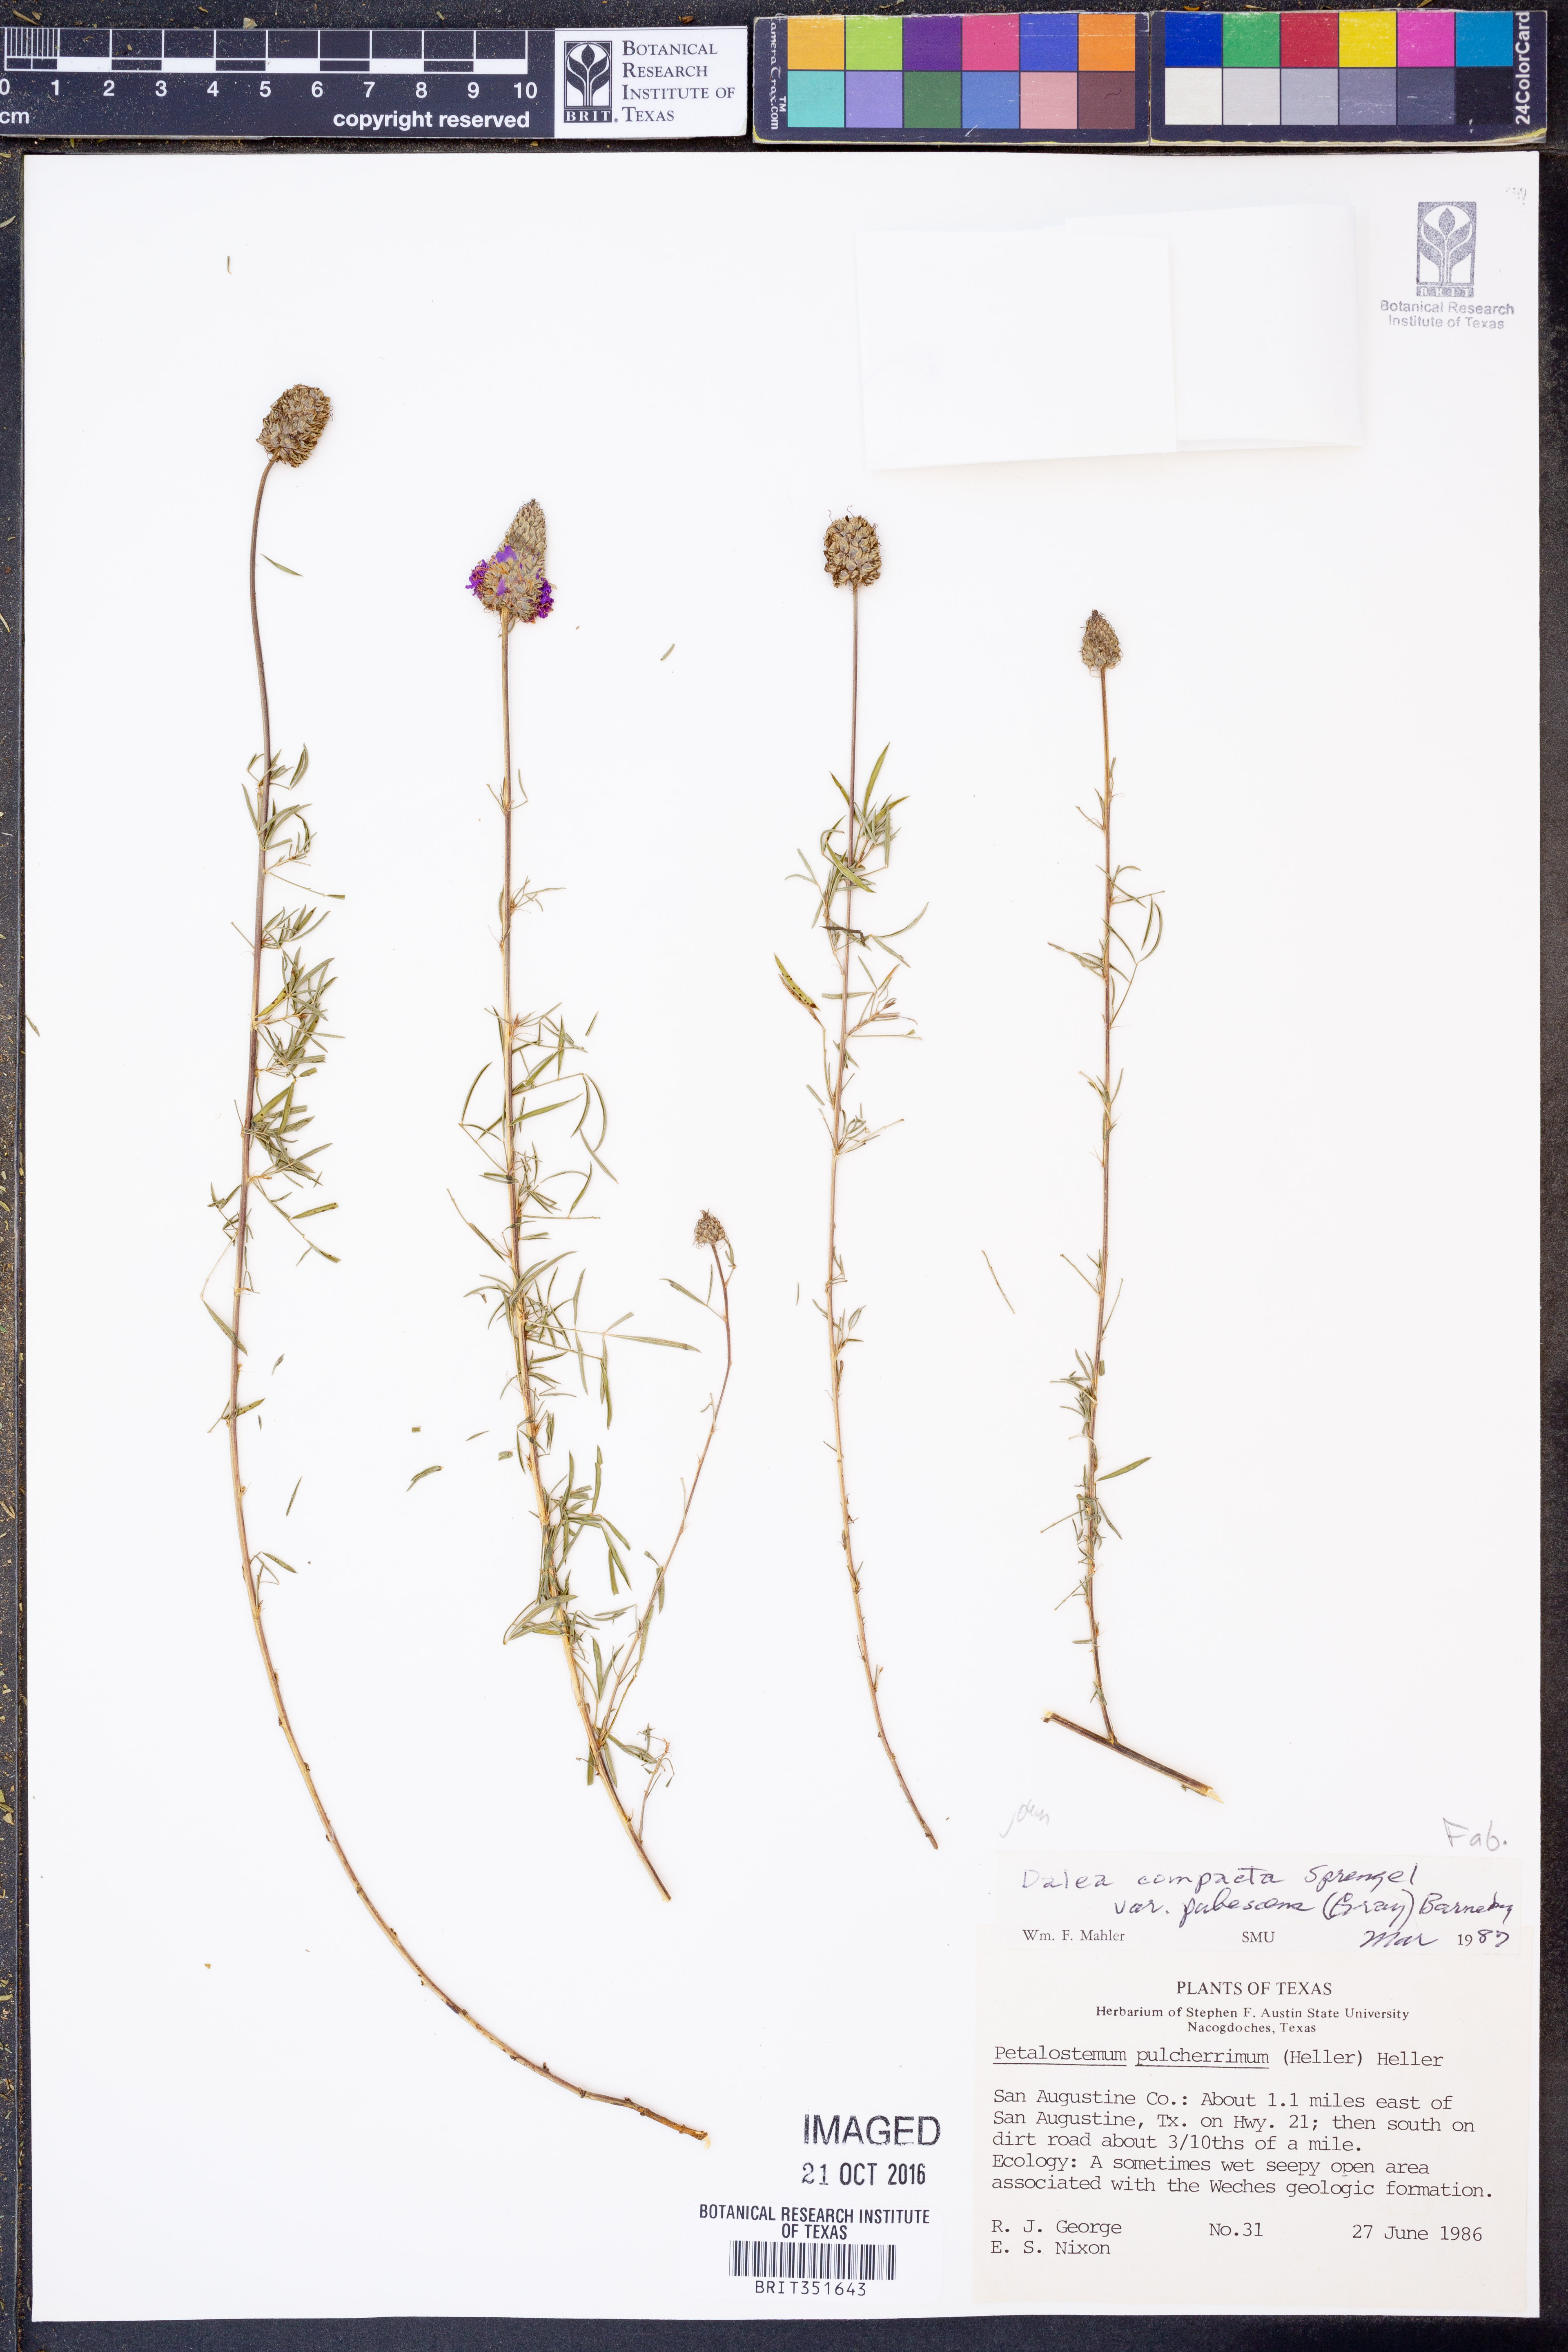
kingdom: Plantae
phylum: Tracheophyta
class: Magnoliopsida
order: Fabales
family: Fabaceae
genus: Dalea
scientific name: Dalea compacta
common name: Compact prairie-clover
